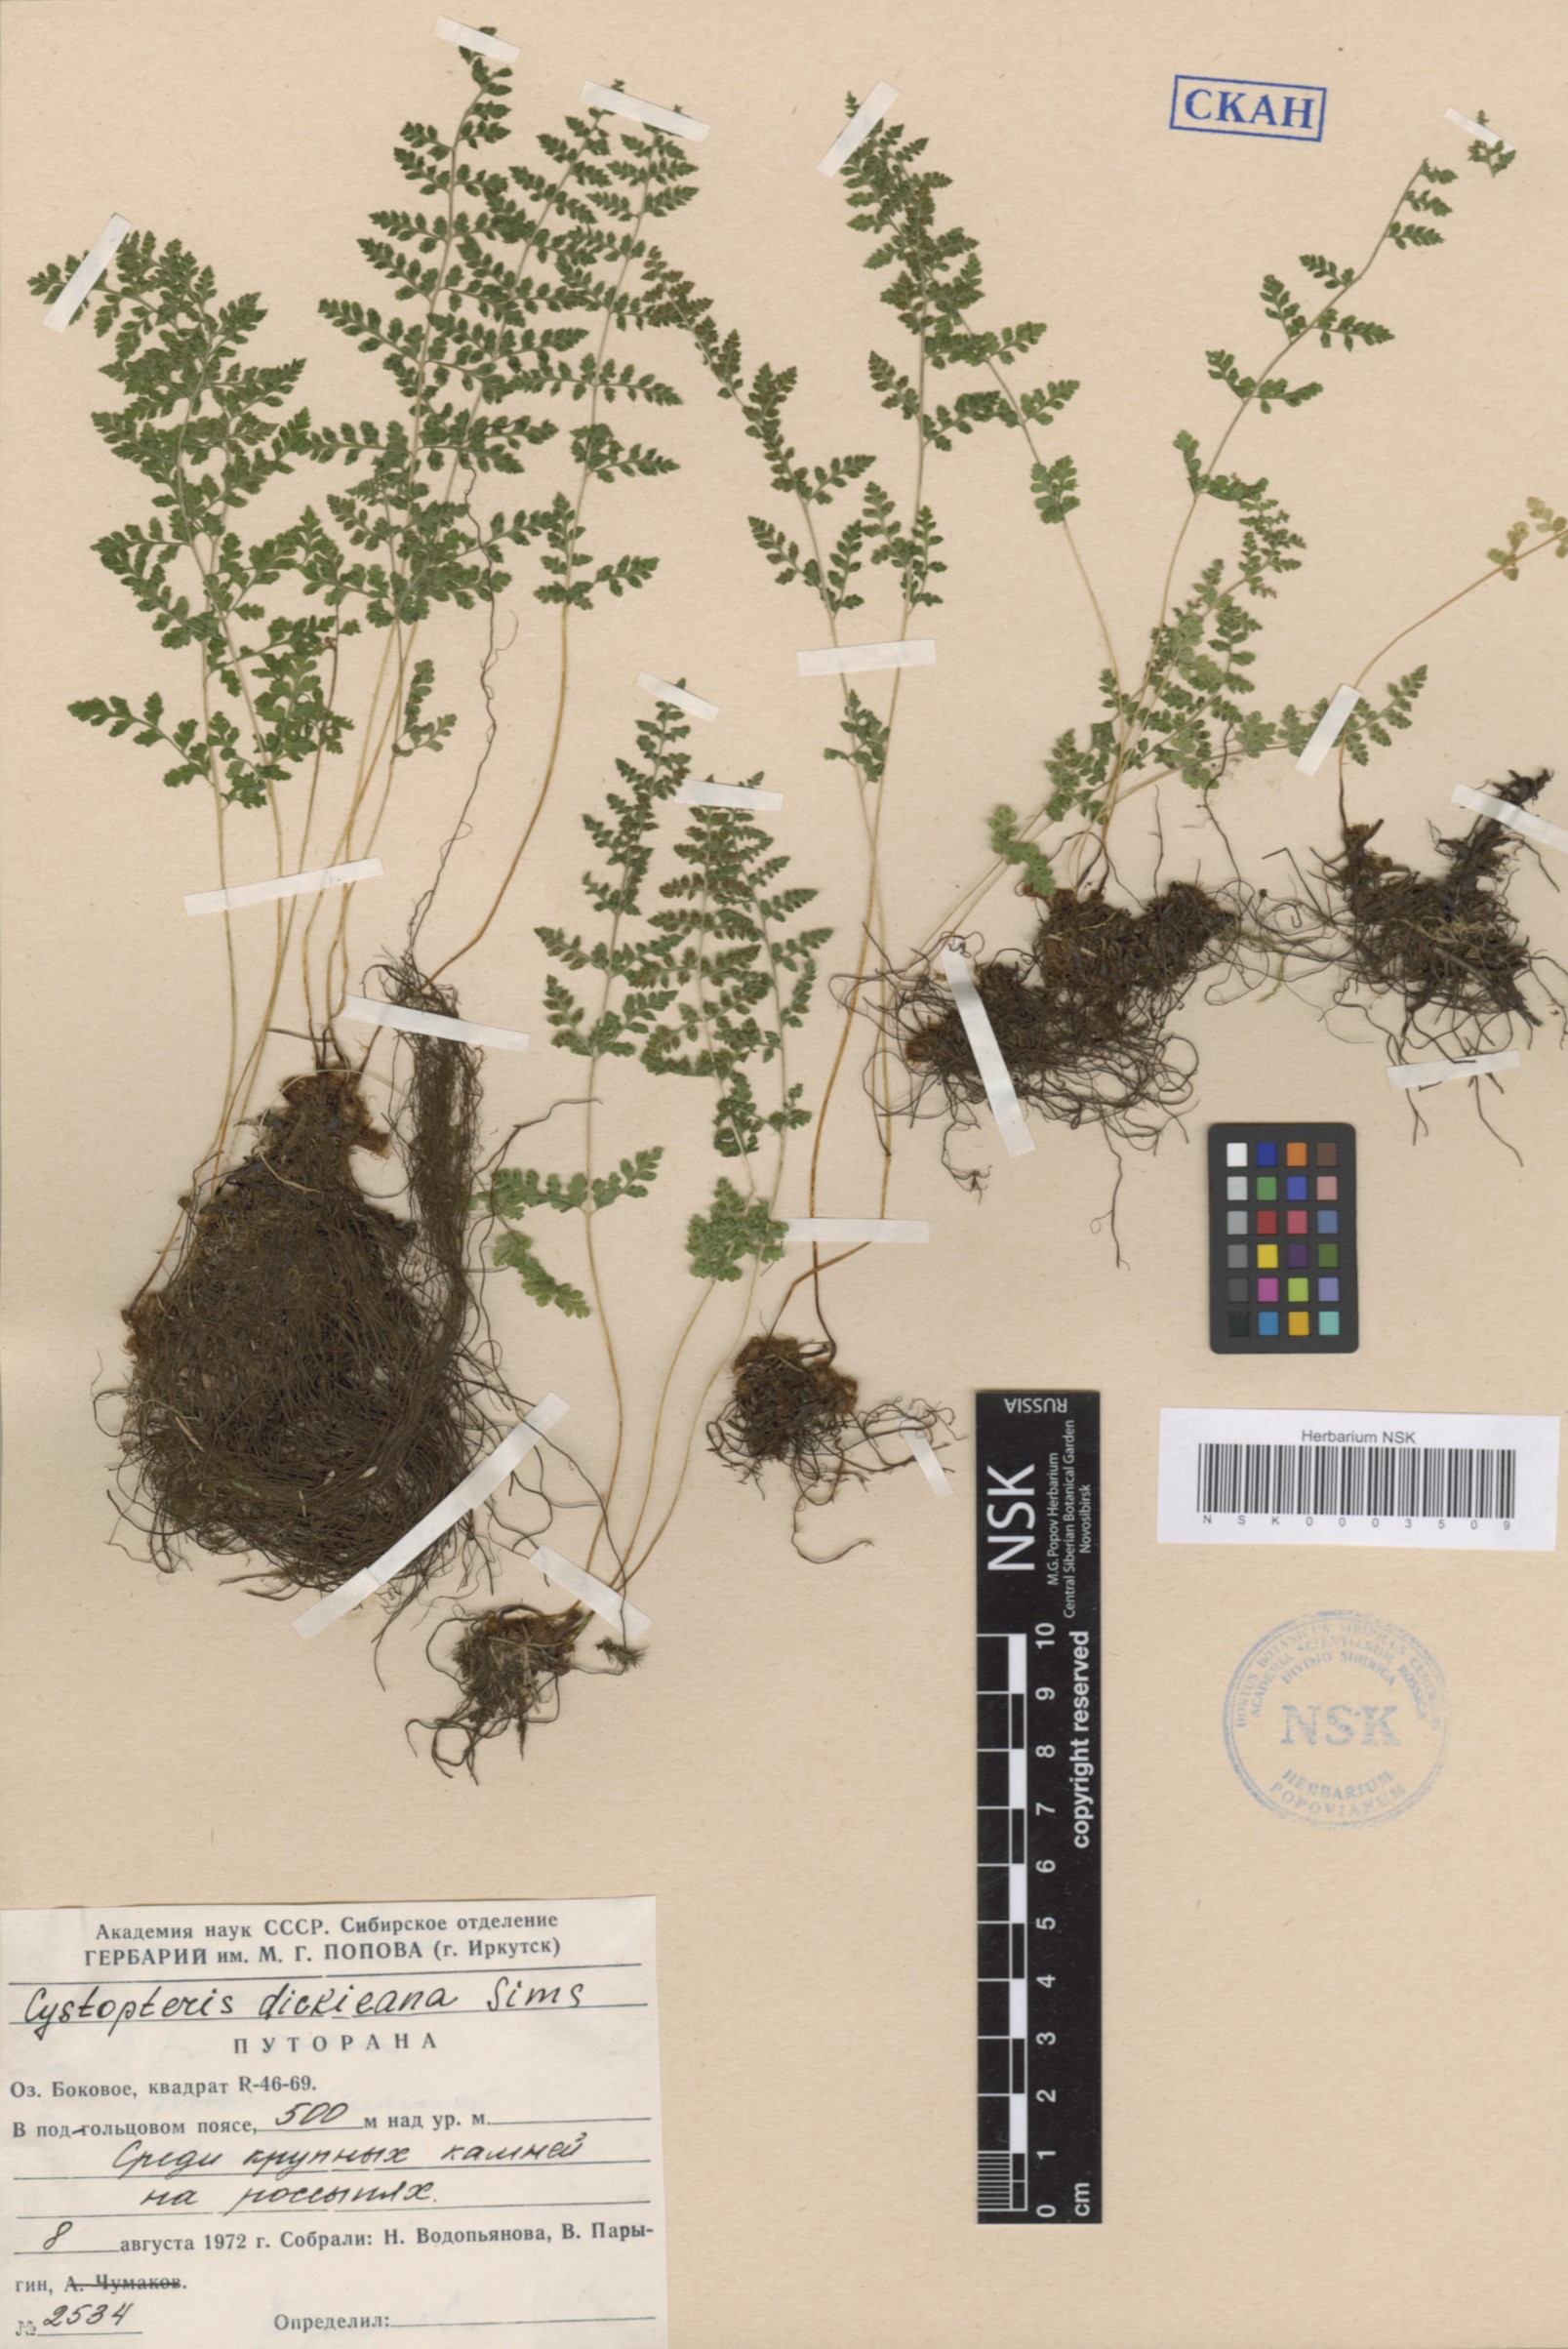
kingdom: Plantae
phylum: Tracheophyta
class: Polypodiopsida
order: Polypodiales
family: Cystopteridaceae
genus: Cystopteris
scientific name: Cystopteris dickieana
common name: Dickie's bladder-fern
